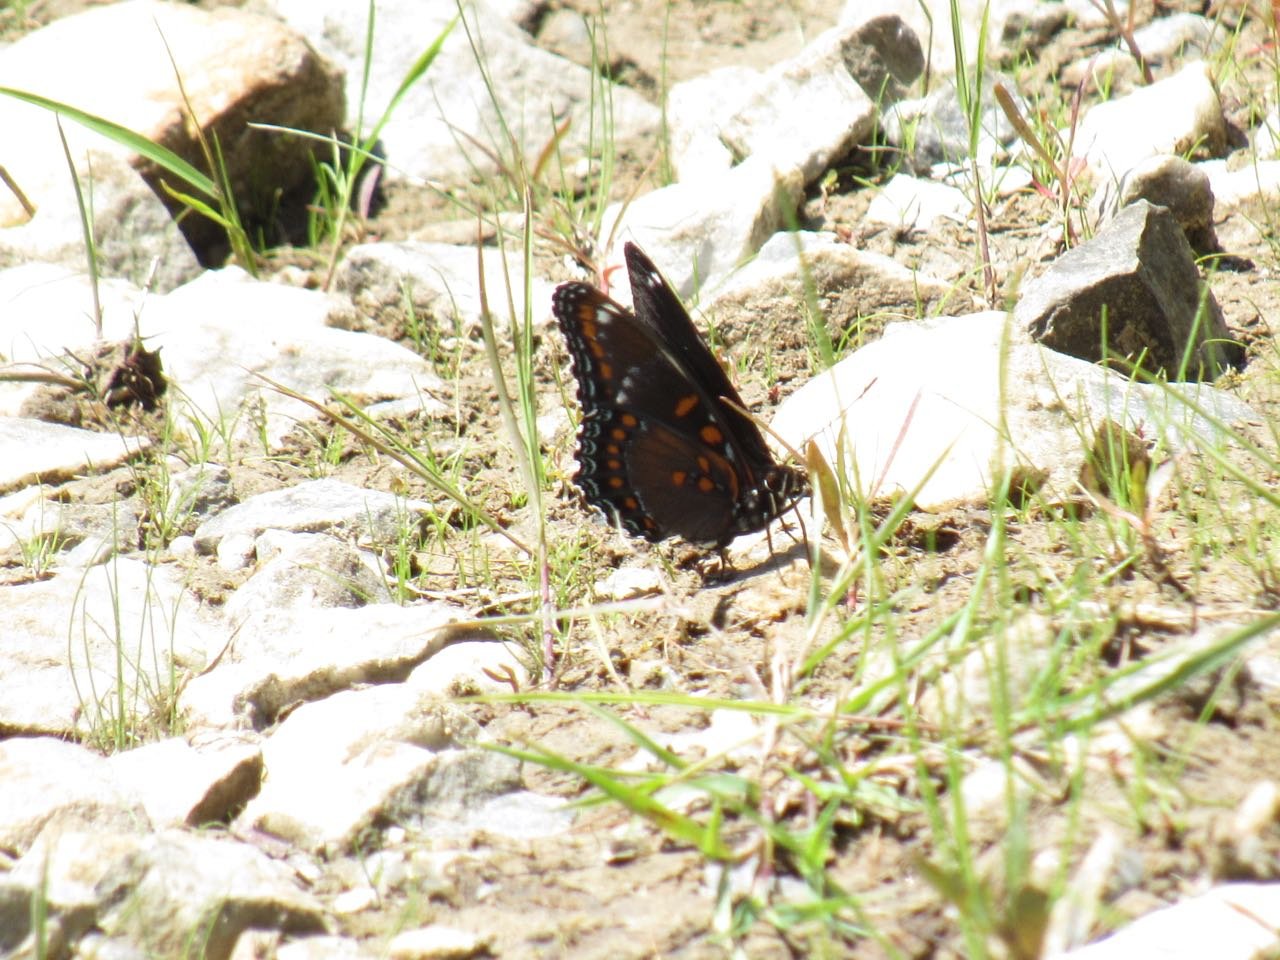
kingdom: Animalia
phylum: Arthropoda
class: Insecta
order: Lepidoptera
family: Nymphalidae
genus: Limenitis
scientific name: Limenitis
